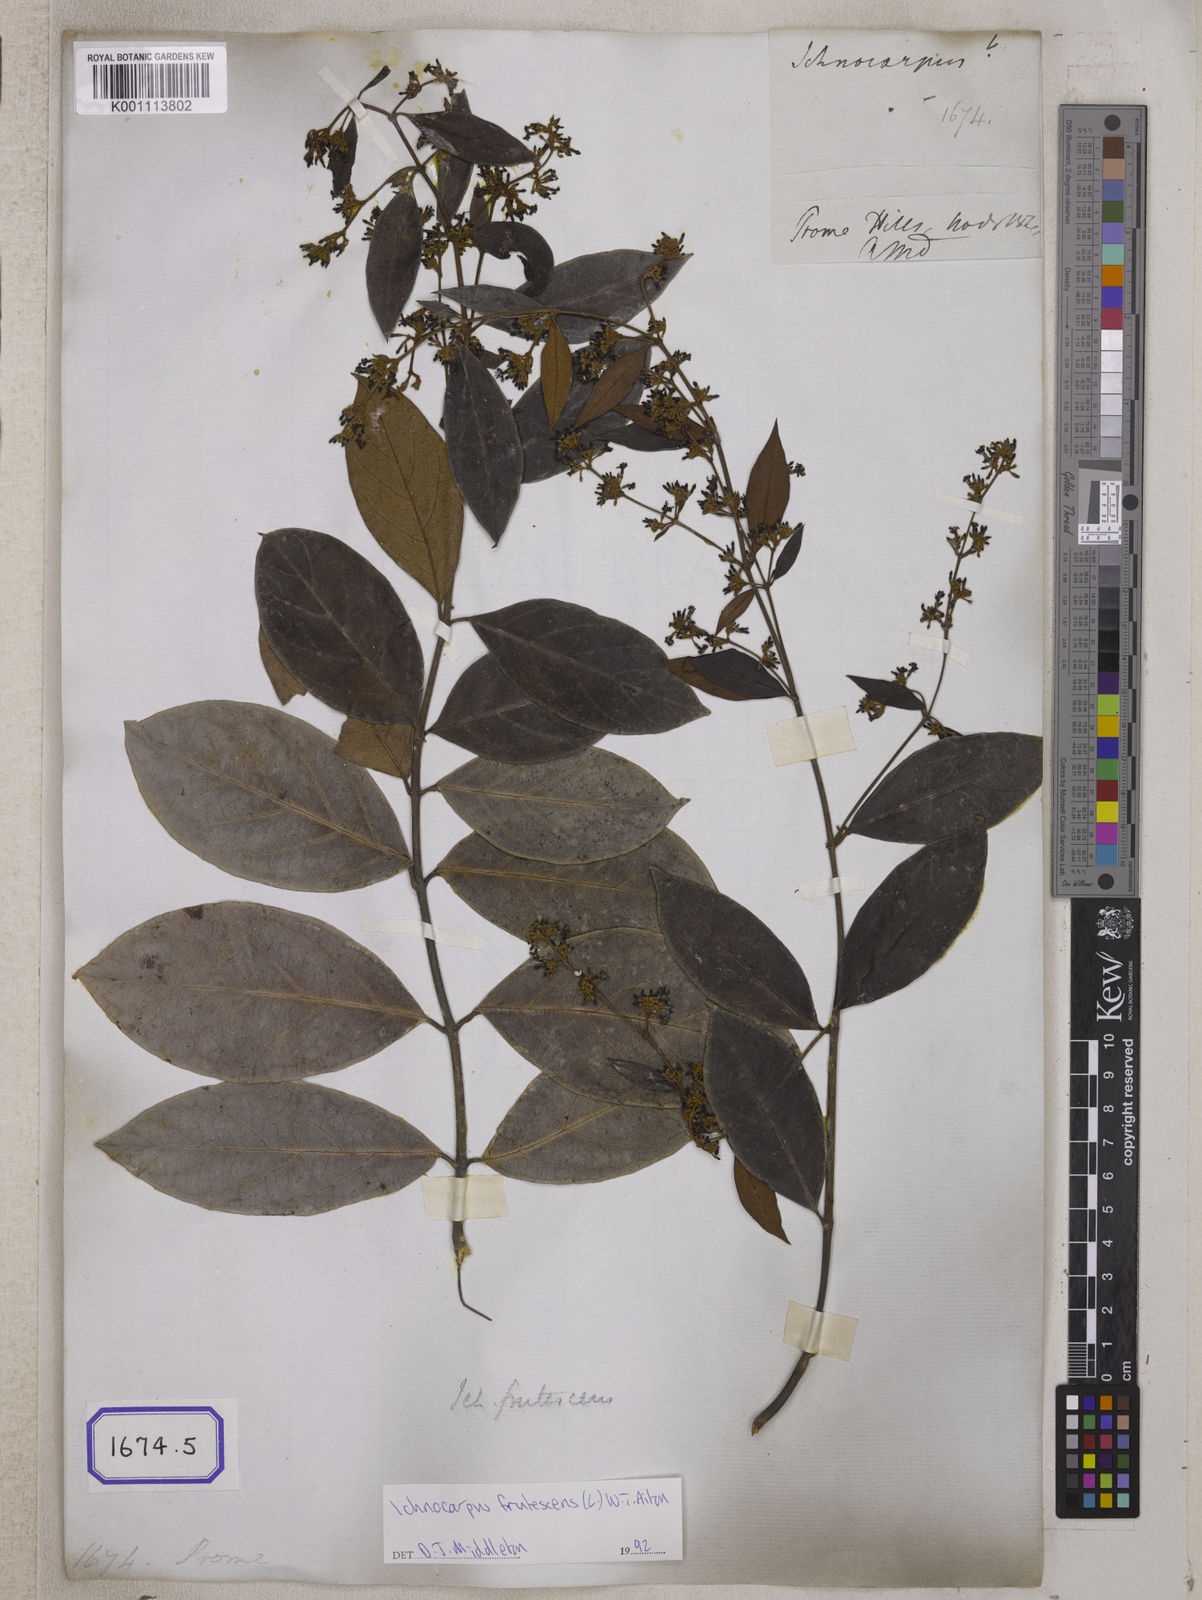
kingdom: Plantae
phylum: Tracheophyta
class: Magnoliopsida
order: Gentianales
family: Apocynaceae
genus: Ichnocarpus
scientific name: Ichnocarpus
